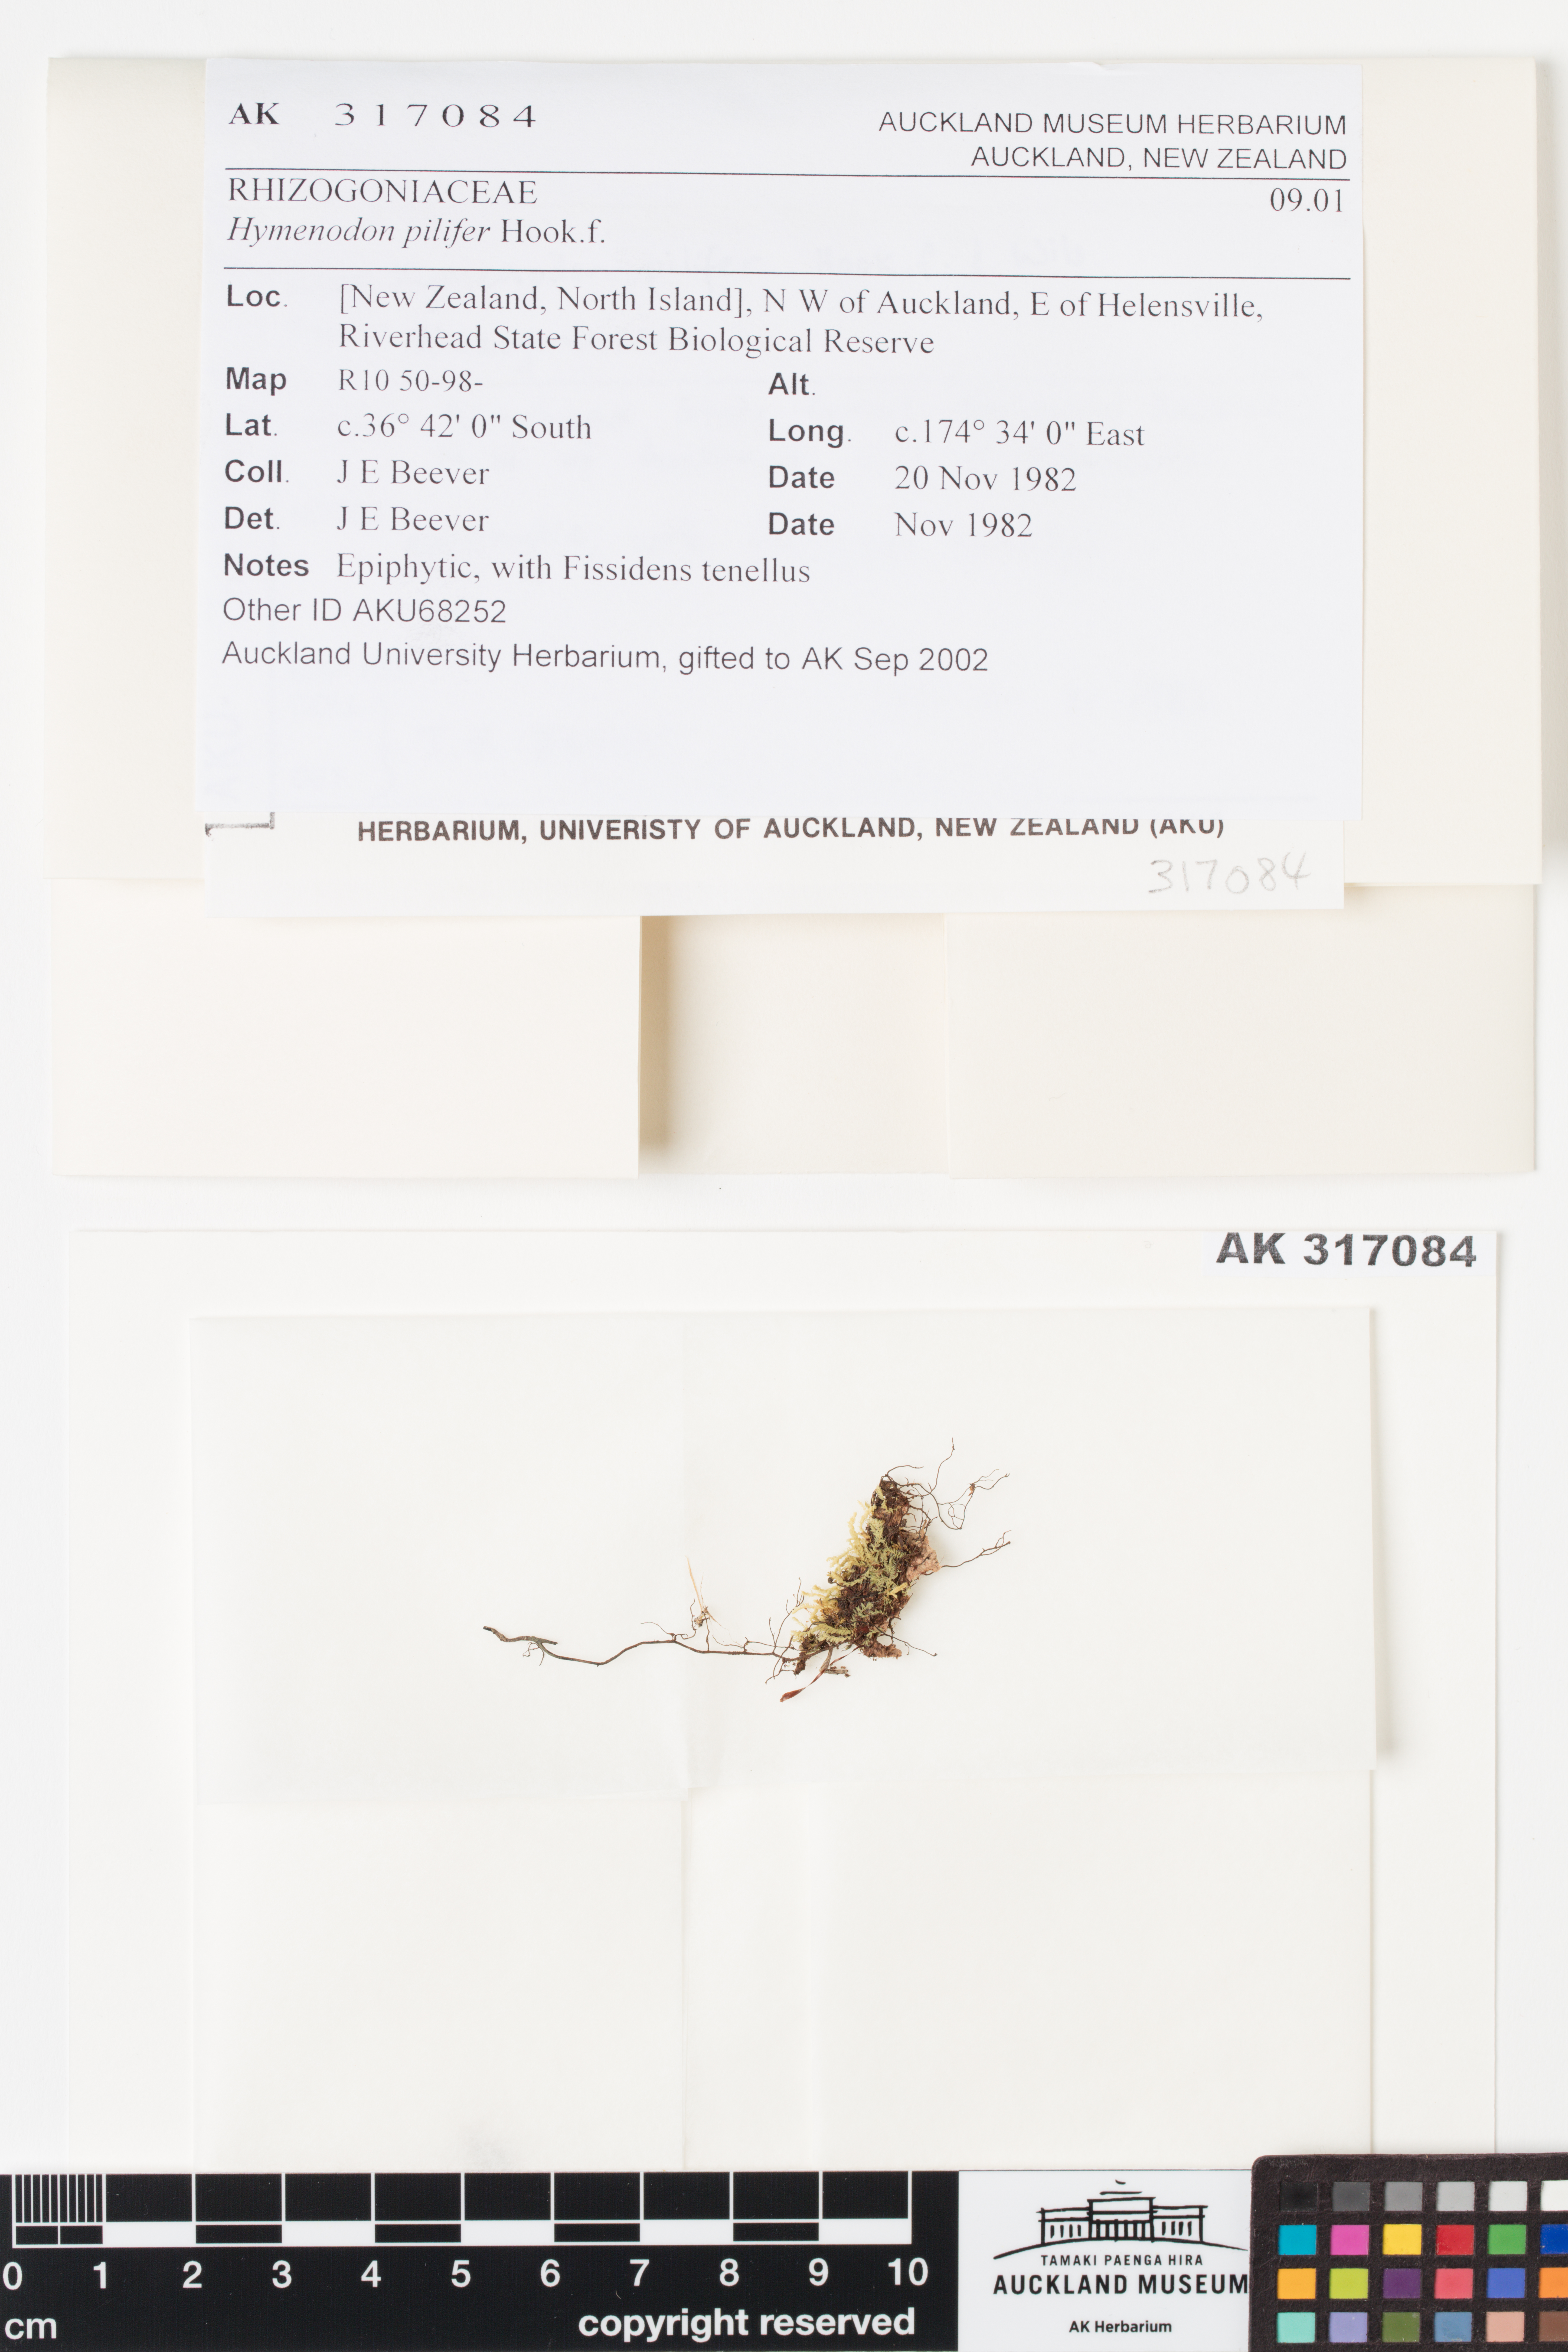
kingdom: Plantae
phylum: Bryophyta
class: Bryopsida
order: Orthodontiales
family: Orthodontiaceae
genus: Hymenodon
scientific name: Hymenodon pilifer
